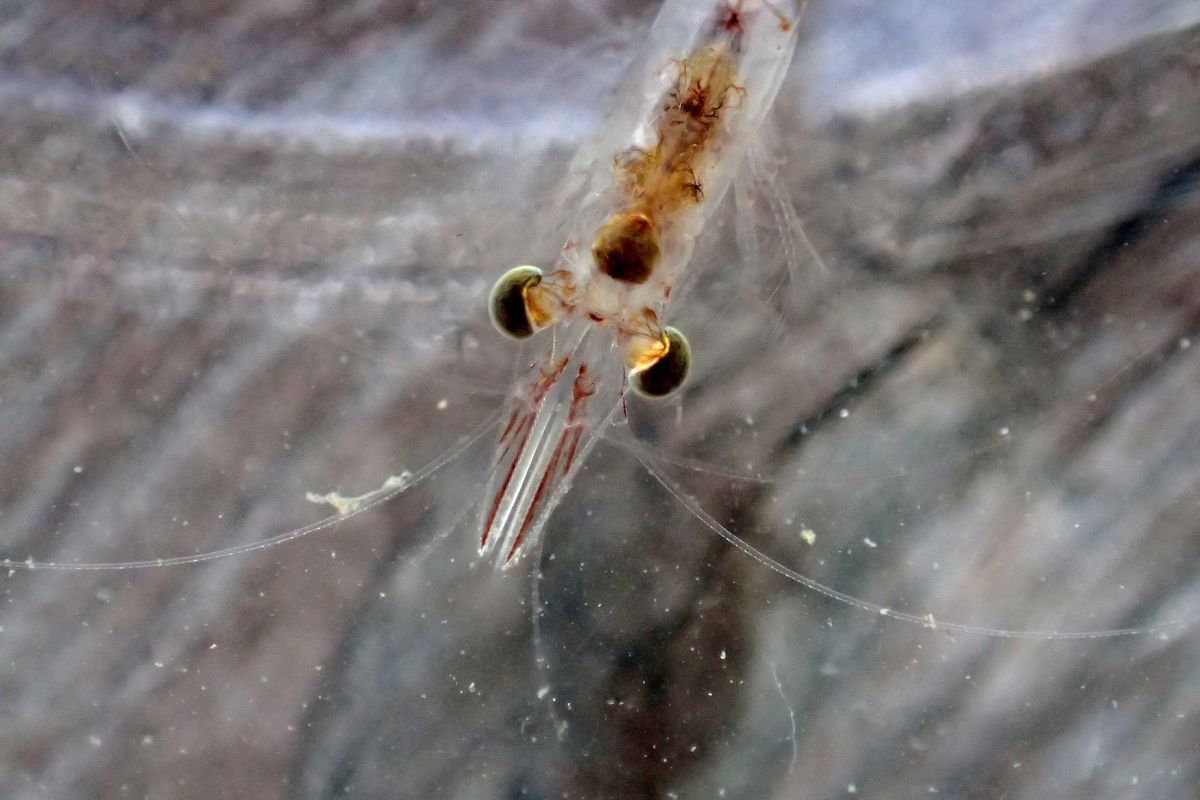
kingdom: Animalia
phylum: Arthropoda
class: Malacostraca
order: Mysida
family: Mysidae
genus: Mysis
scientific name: Mysis oculata
